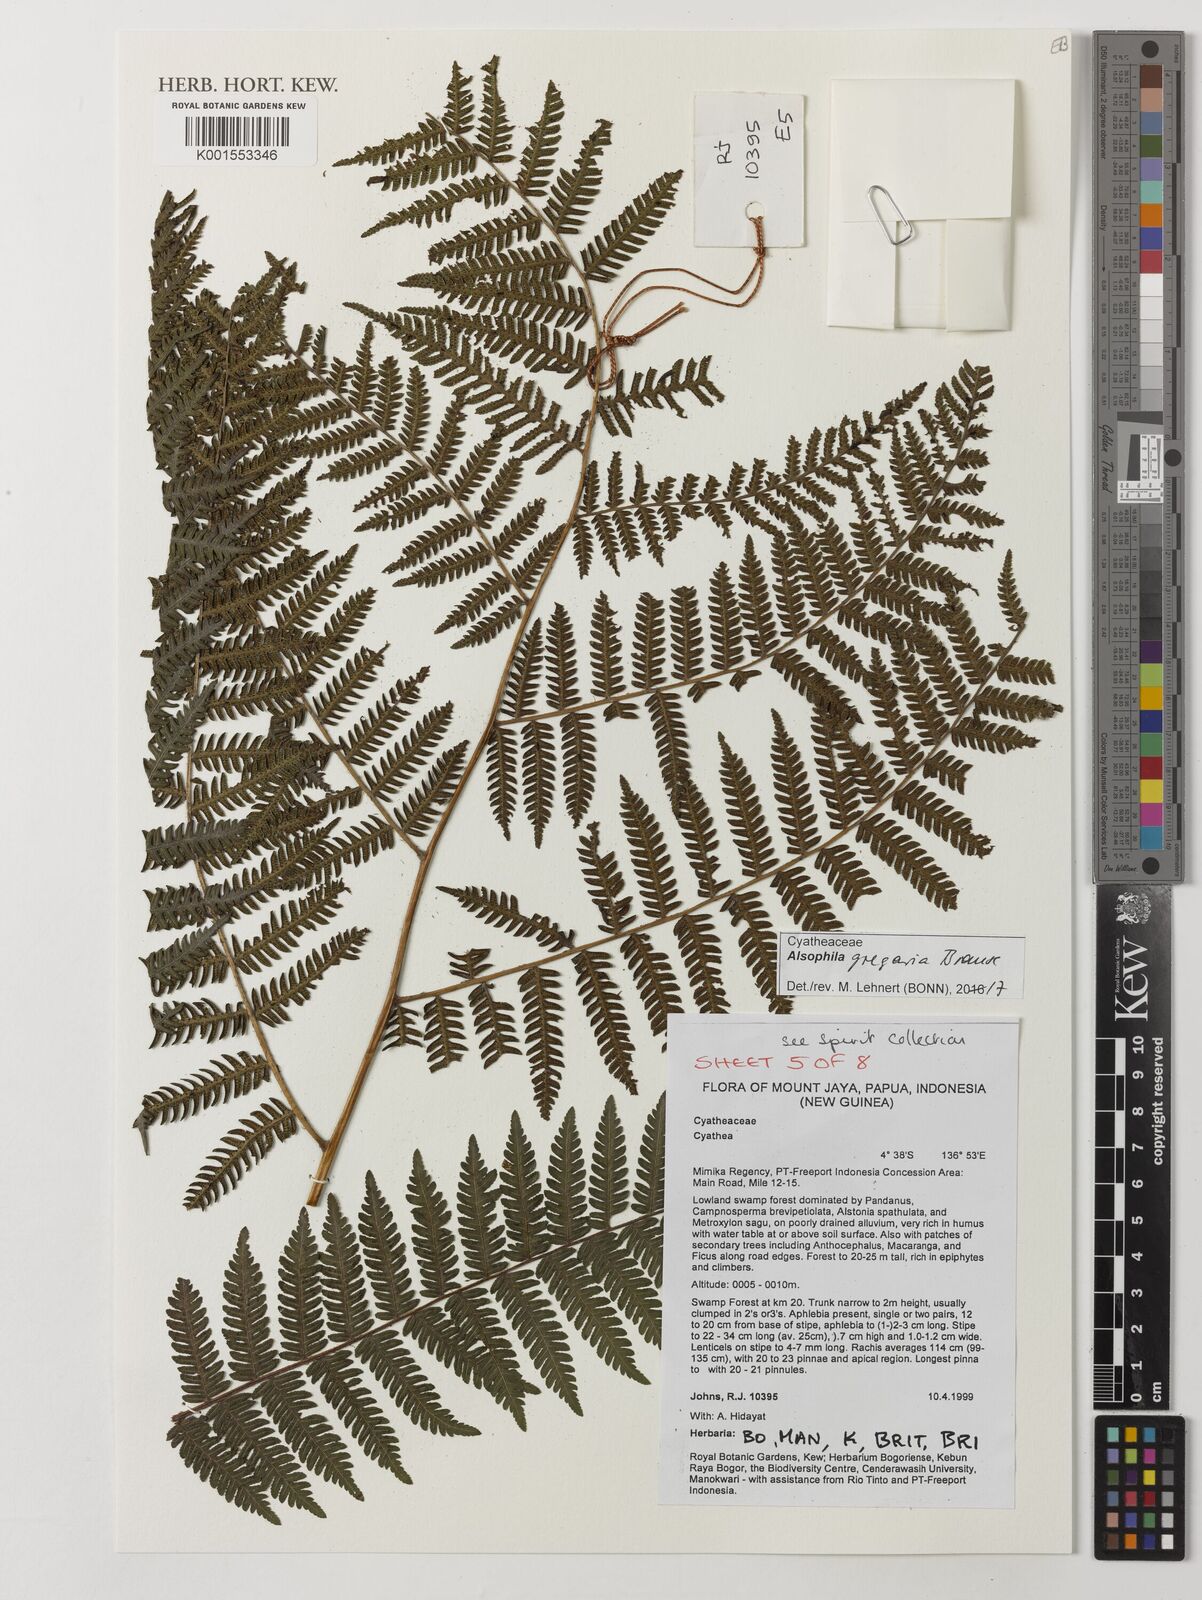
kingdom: Plantae
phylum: Tracheophyta
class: Polypodiopsida
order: Cyatheales
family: Cyatheaceae
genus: Alsophila
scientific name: Alsophila gregaria
